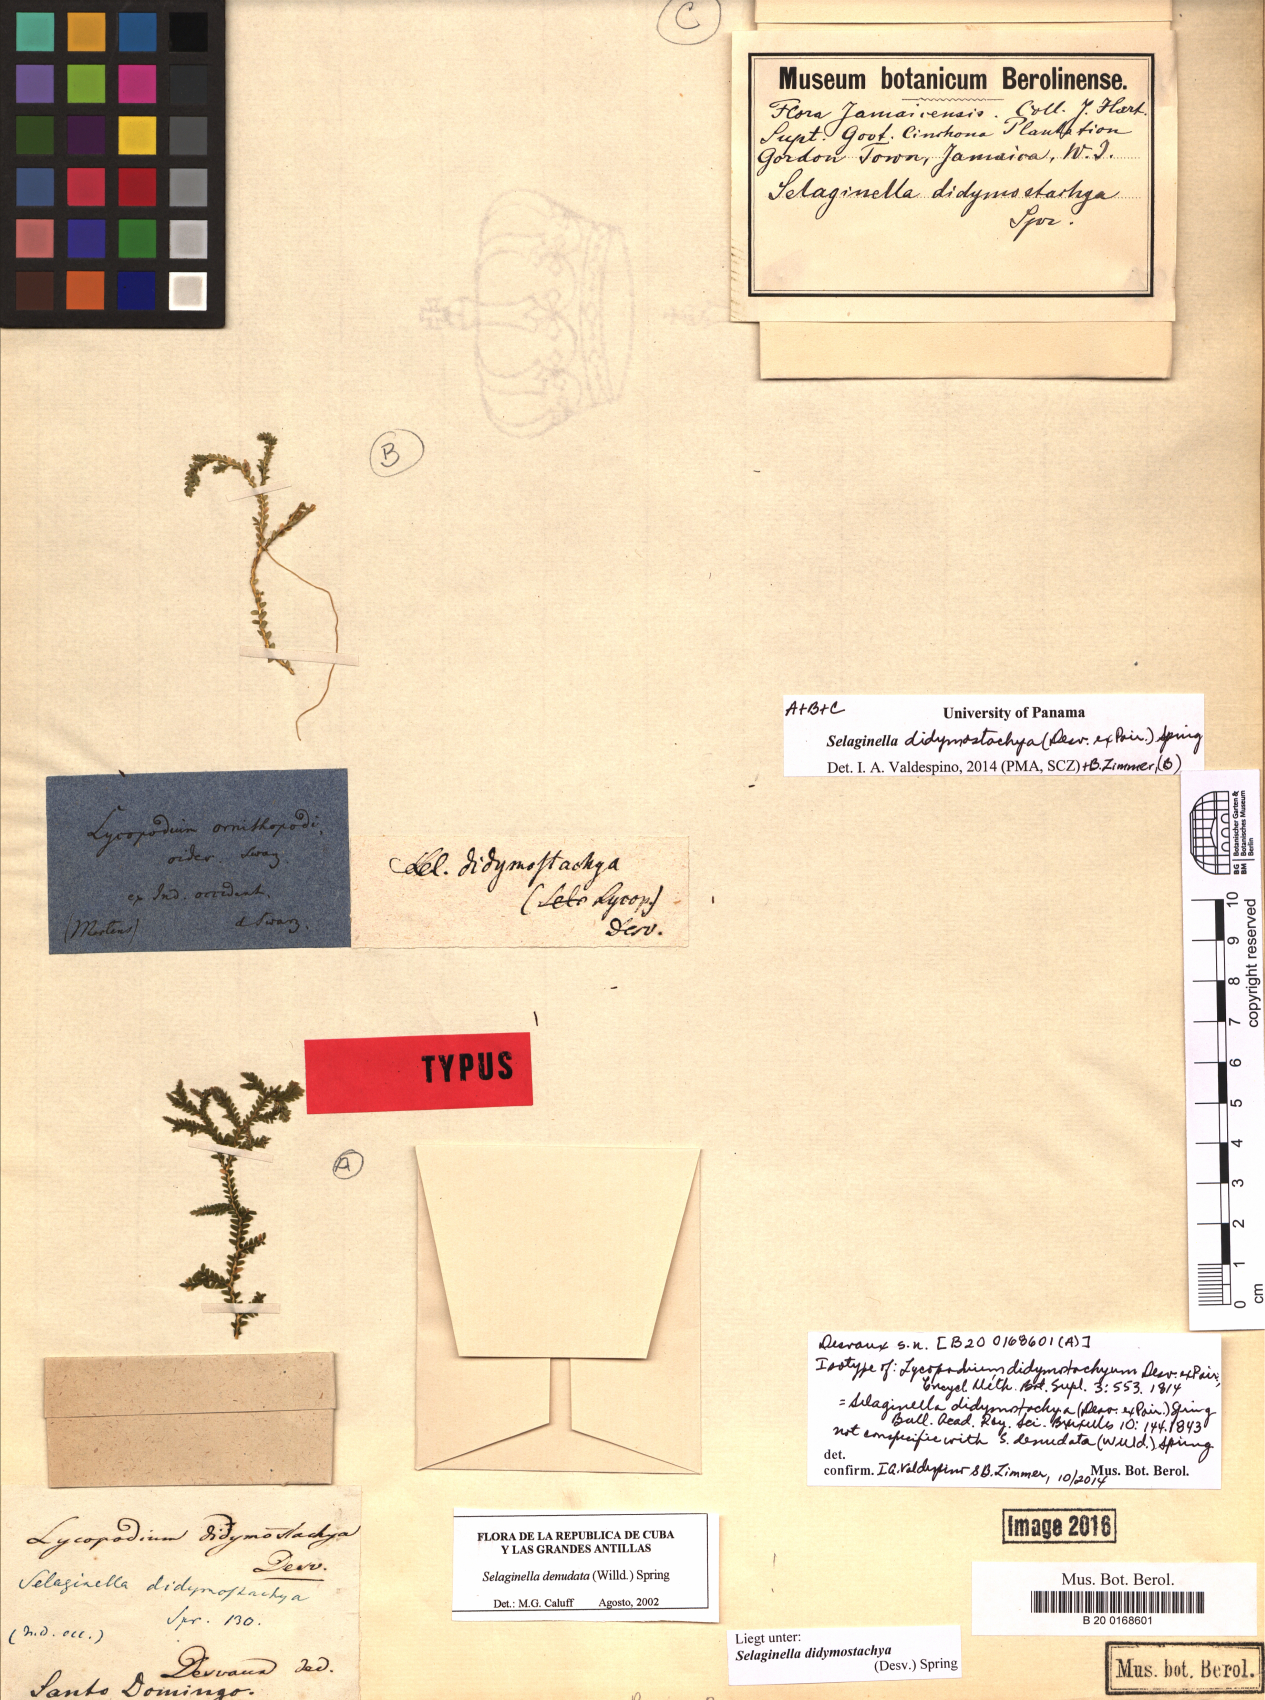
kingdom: Plantae
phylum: Tracheophyta
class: Lycopodiopsida
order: Selaginellales
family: Selaginellaceae
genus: Selaginella
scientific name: Selaginella denudata
